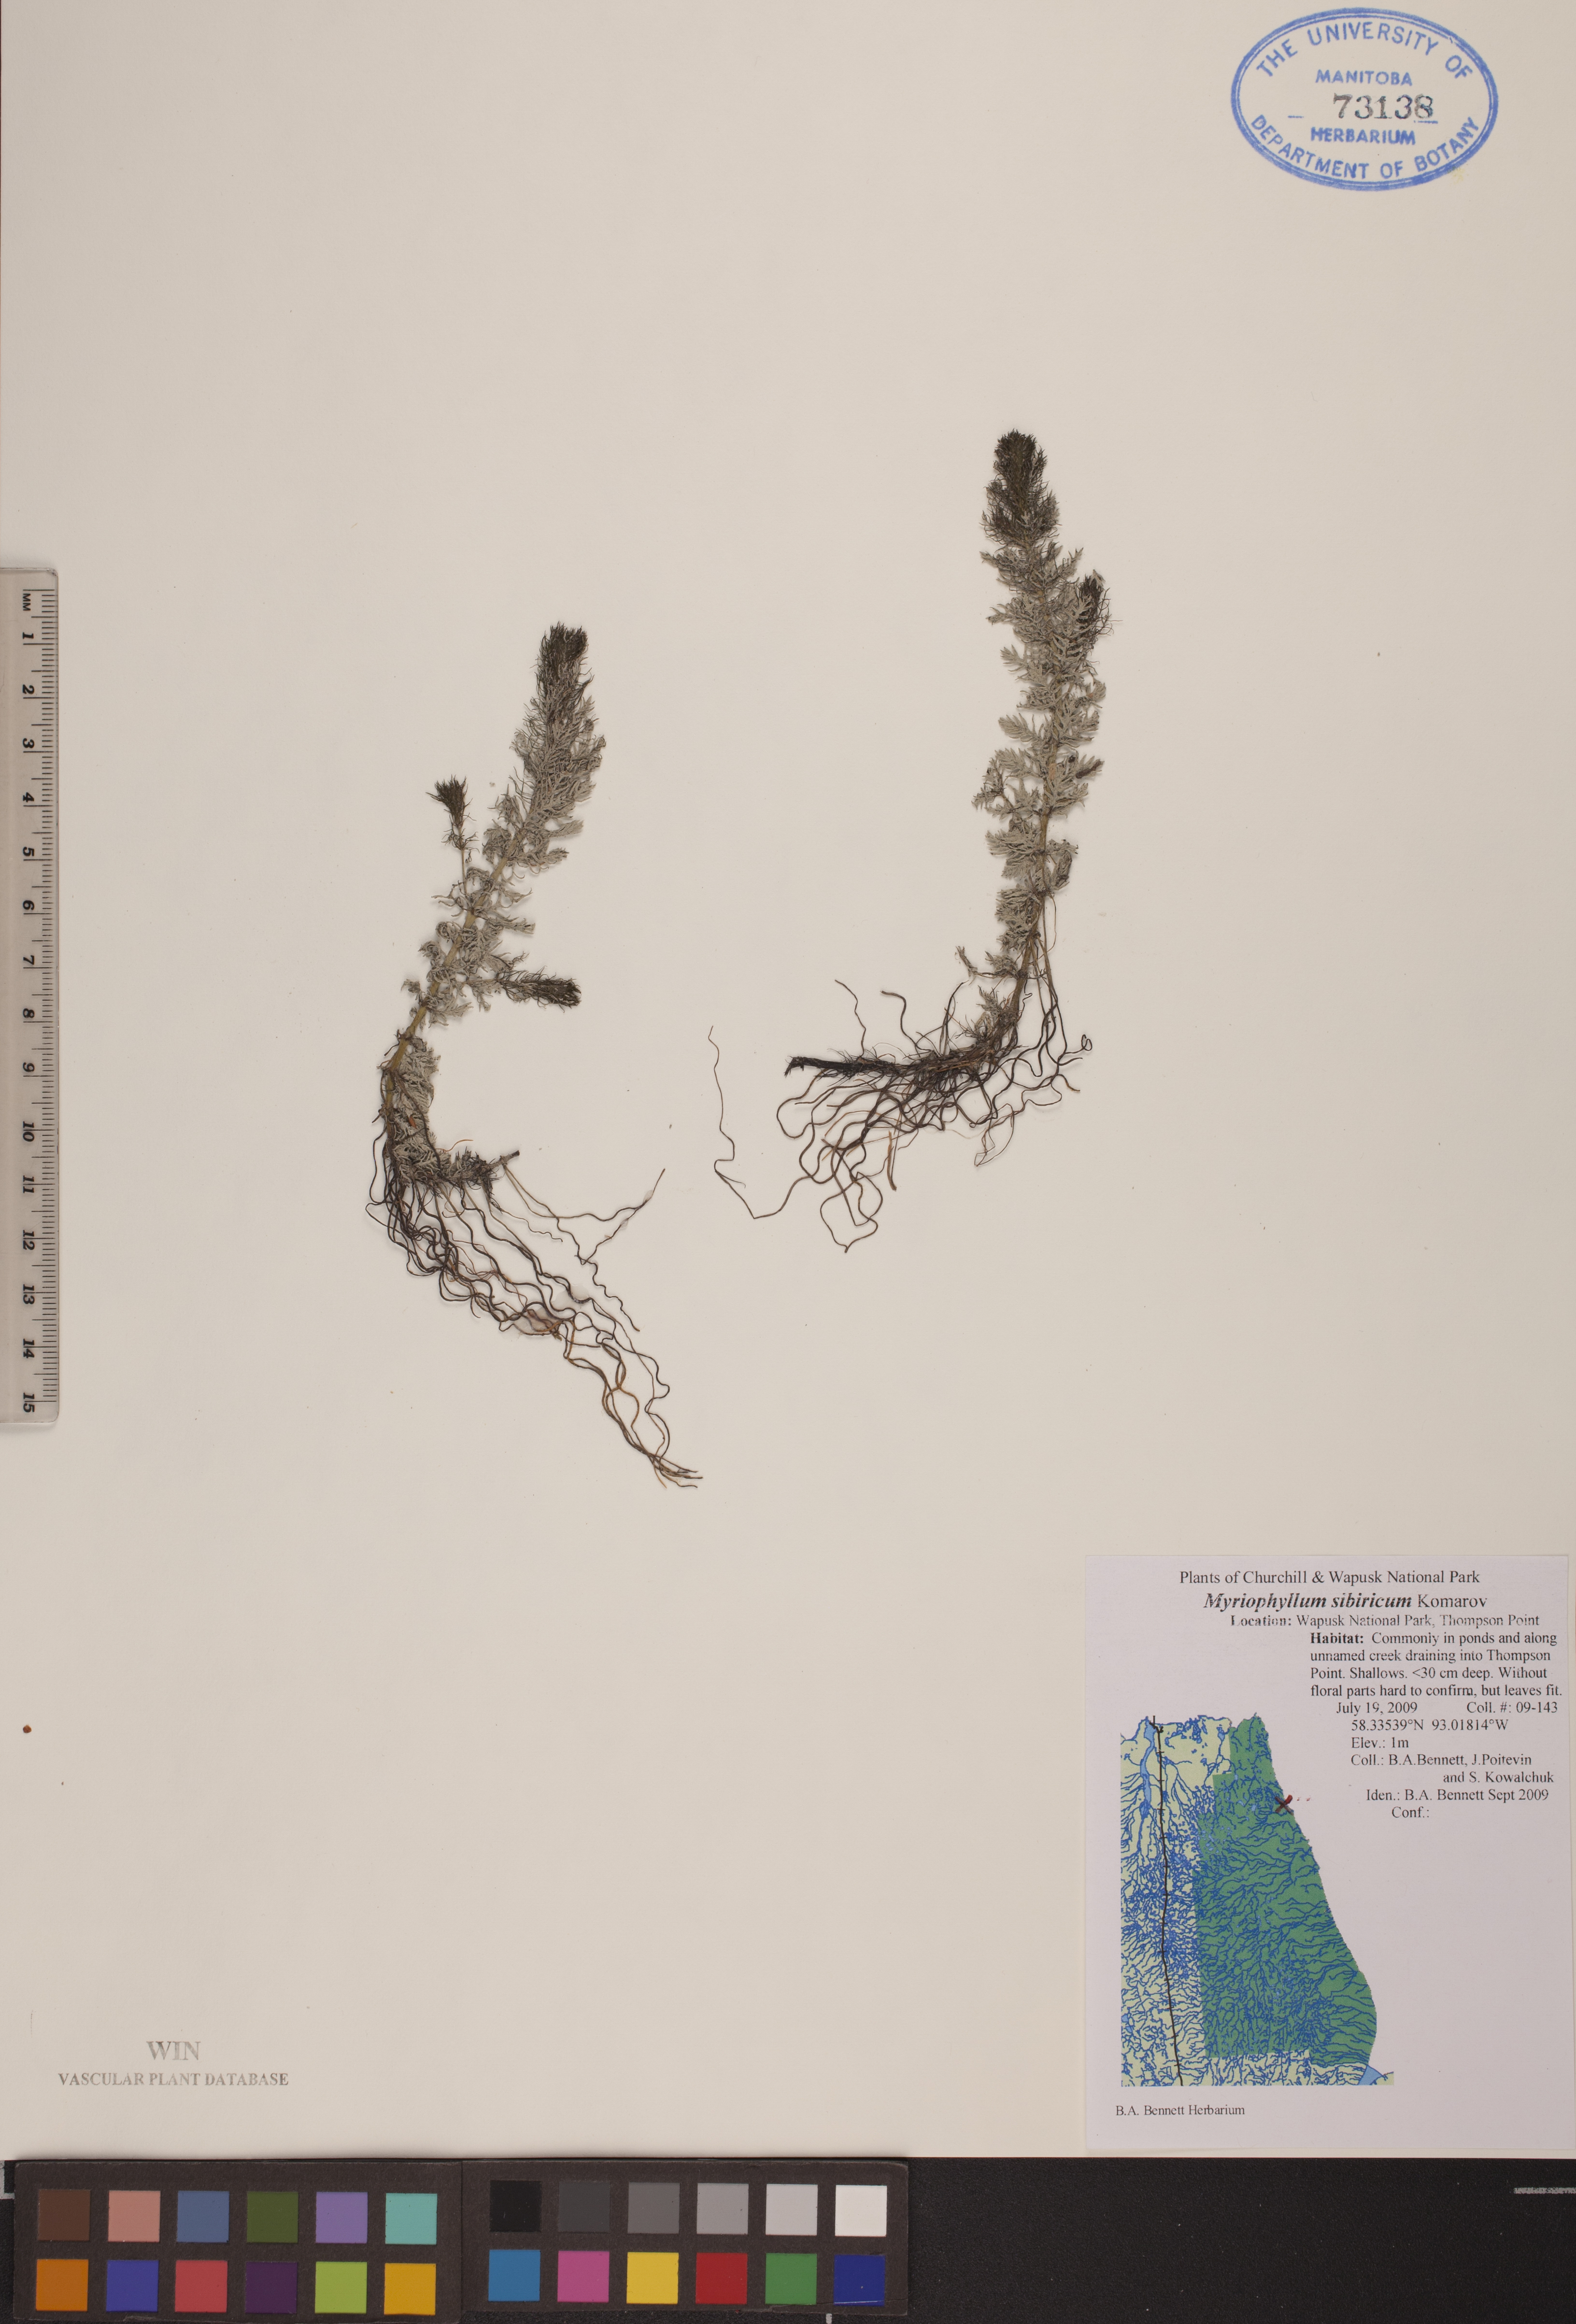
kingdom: Plantae
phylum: Tracheophyta
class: Magnoliopsida
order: Saxifragales
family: Haloragaceae
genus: Myriophyllum
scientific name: Myriophyllum sibiricum
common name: Siberian water-milfoil
